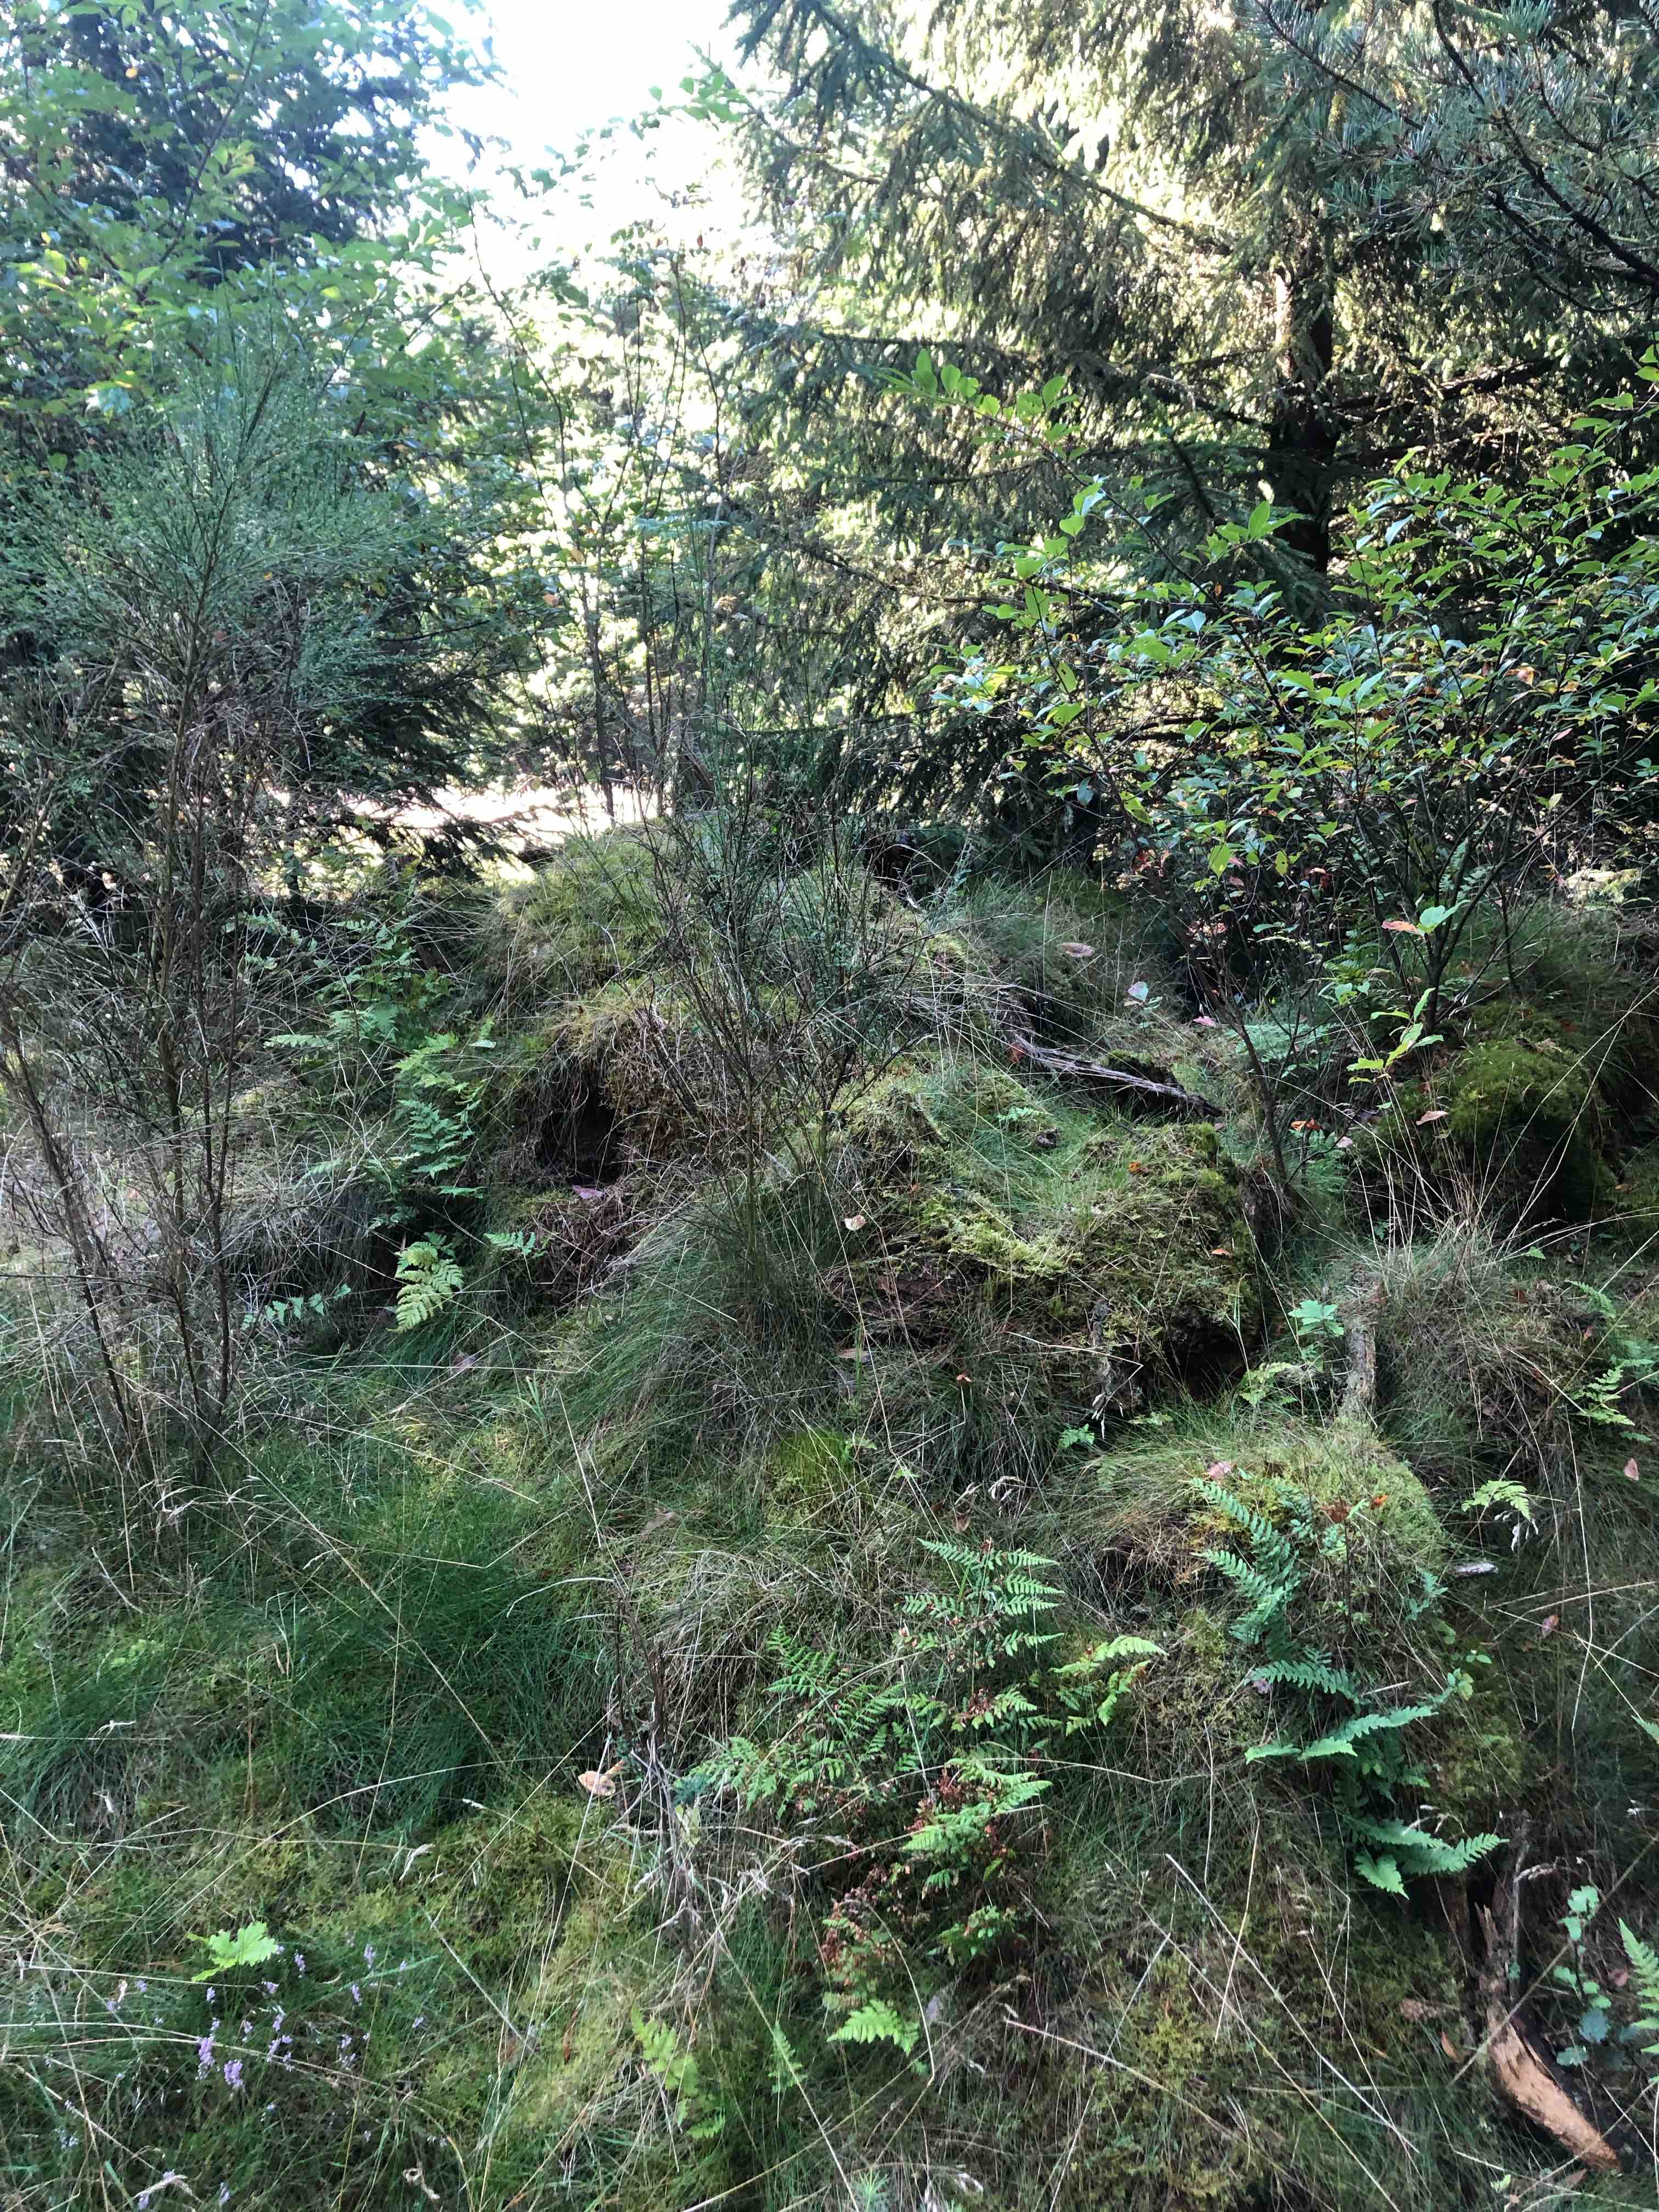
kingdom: Fungi
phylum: Basidiomycota
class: Agaricomycetes
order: Agaricales
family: Tricholomataceae
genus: Tricholoma
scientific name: Tricholoma psammopus
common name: grynstokket ridderhat
